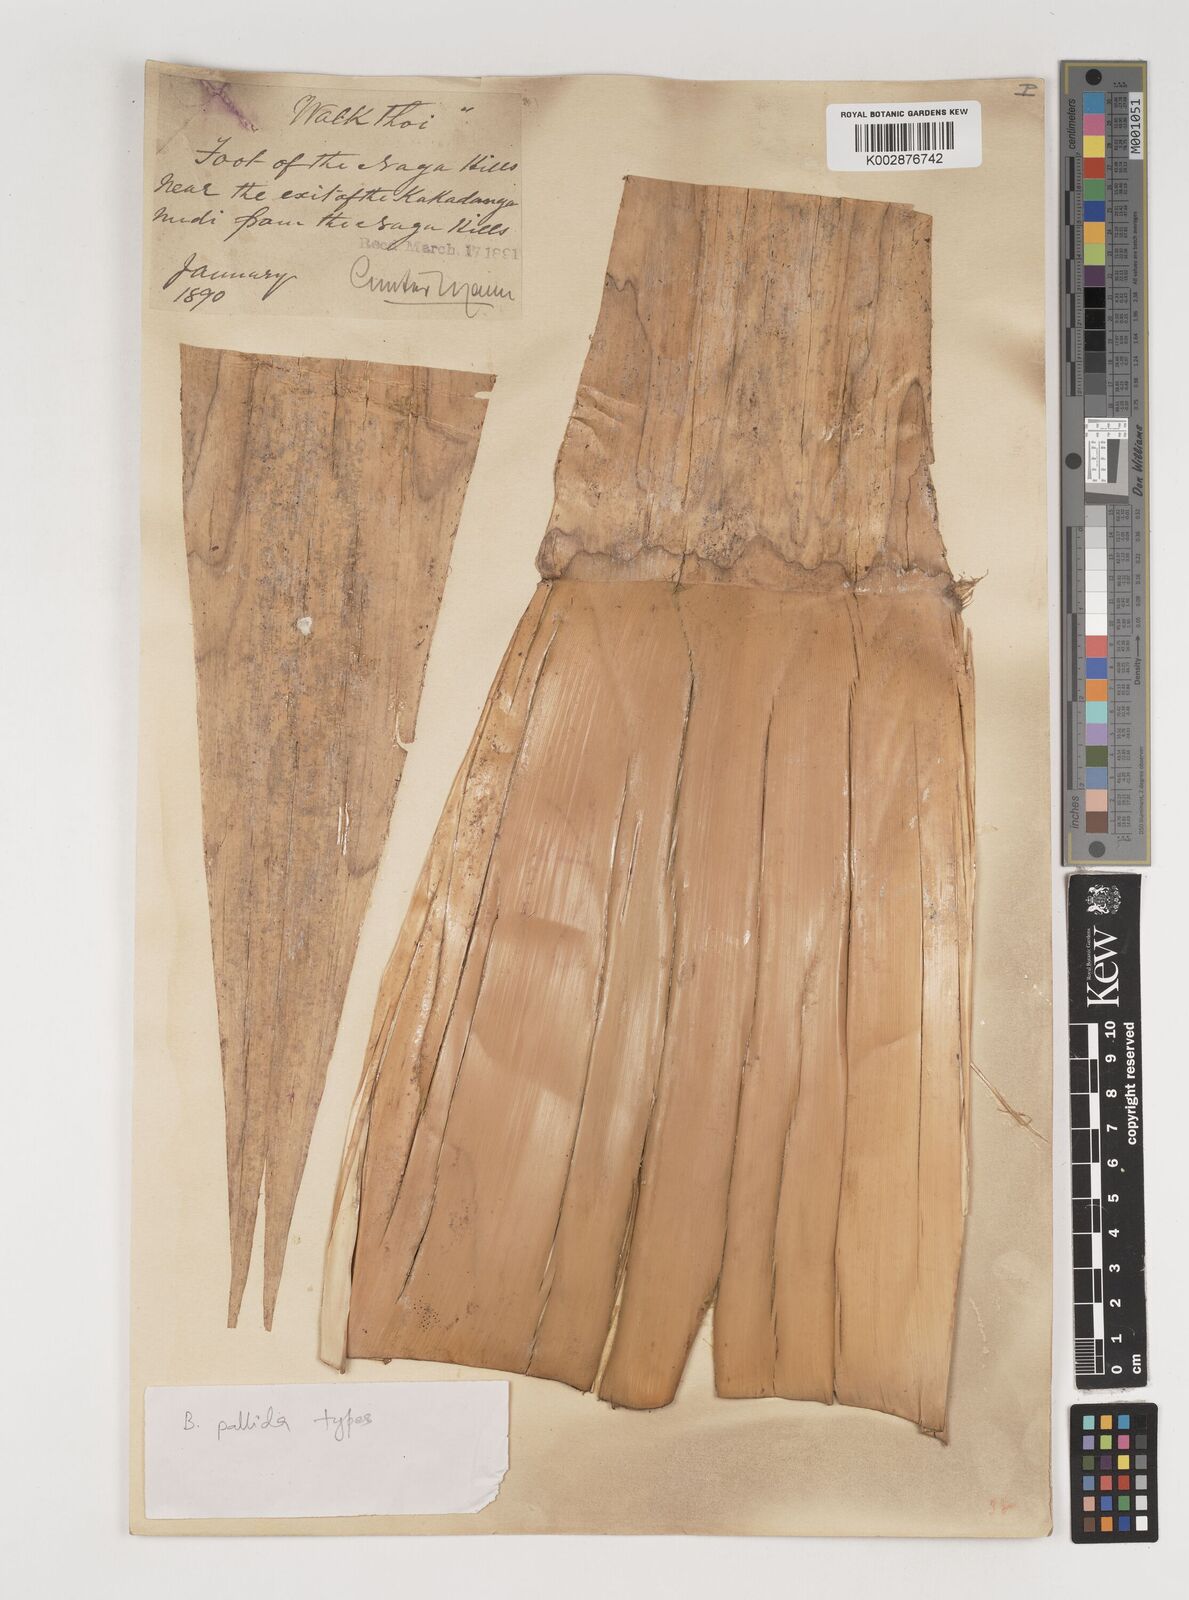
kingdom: Plantae
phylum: Tracheophyta
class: Liliopsida
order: Poales
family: Poaceae
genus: Bambusa
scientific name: Bambusa pallida
